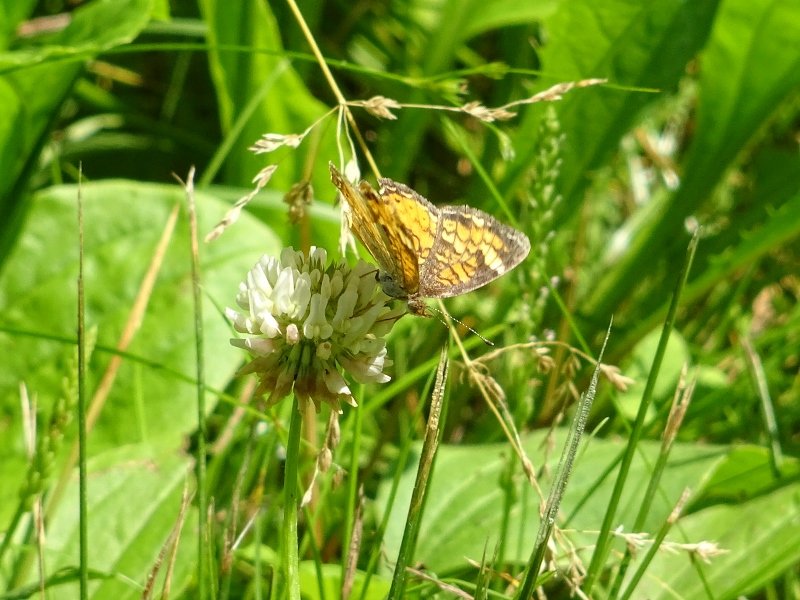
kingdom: Animalia
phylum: Arthropoda
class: Insecta
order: Lepidoptera
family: Nymphalidae
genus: Phyciodes
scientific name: Phyciodes tharos
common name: Pearl Crescent
